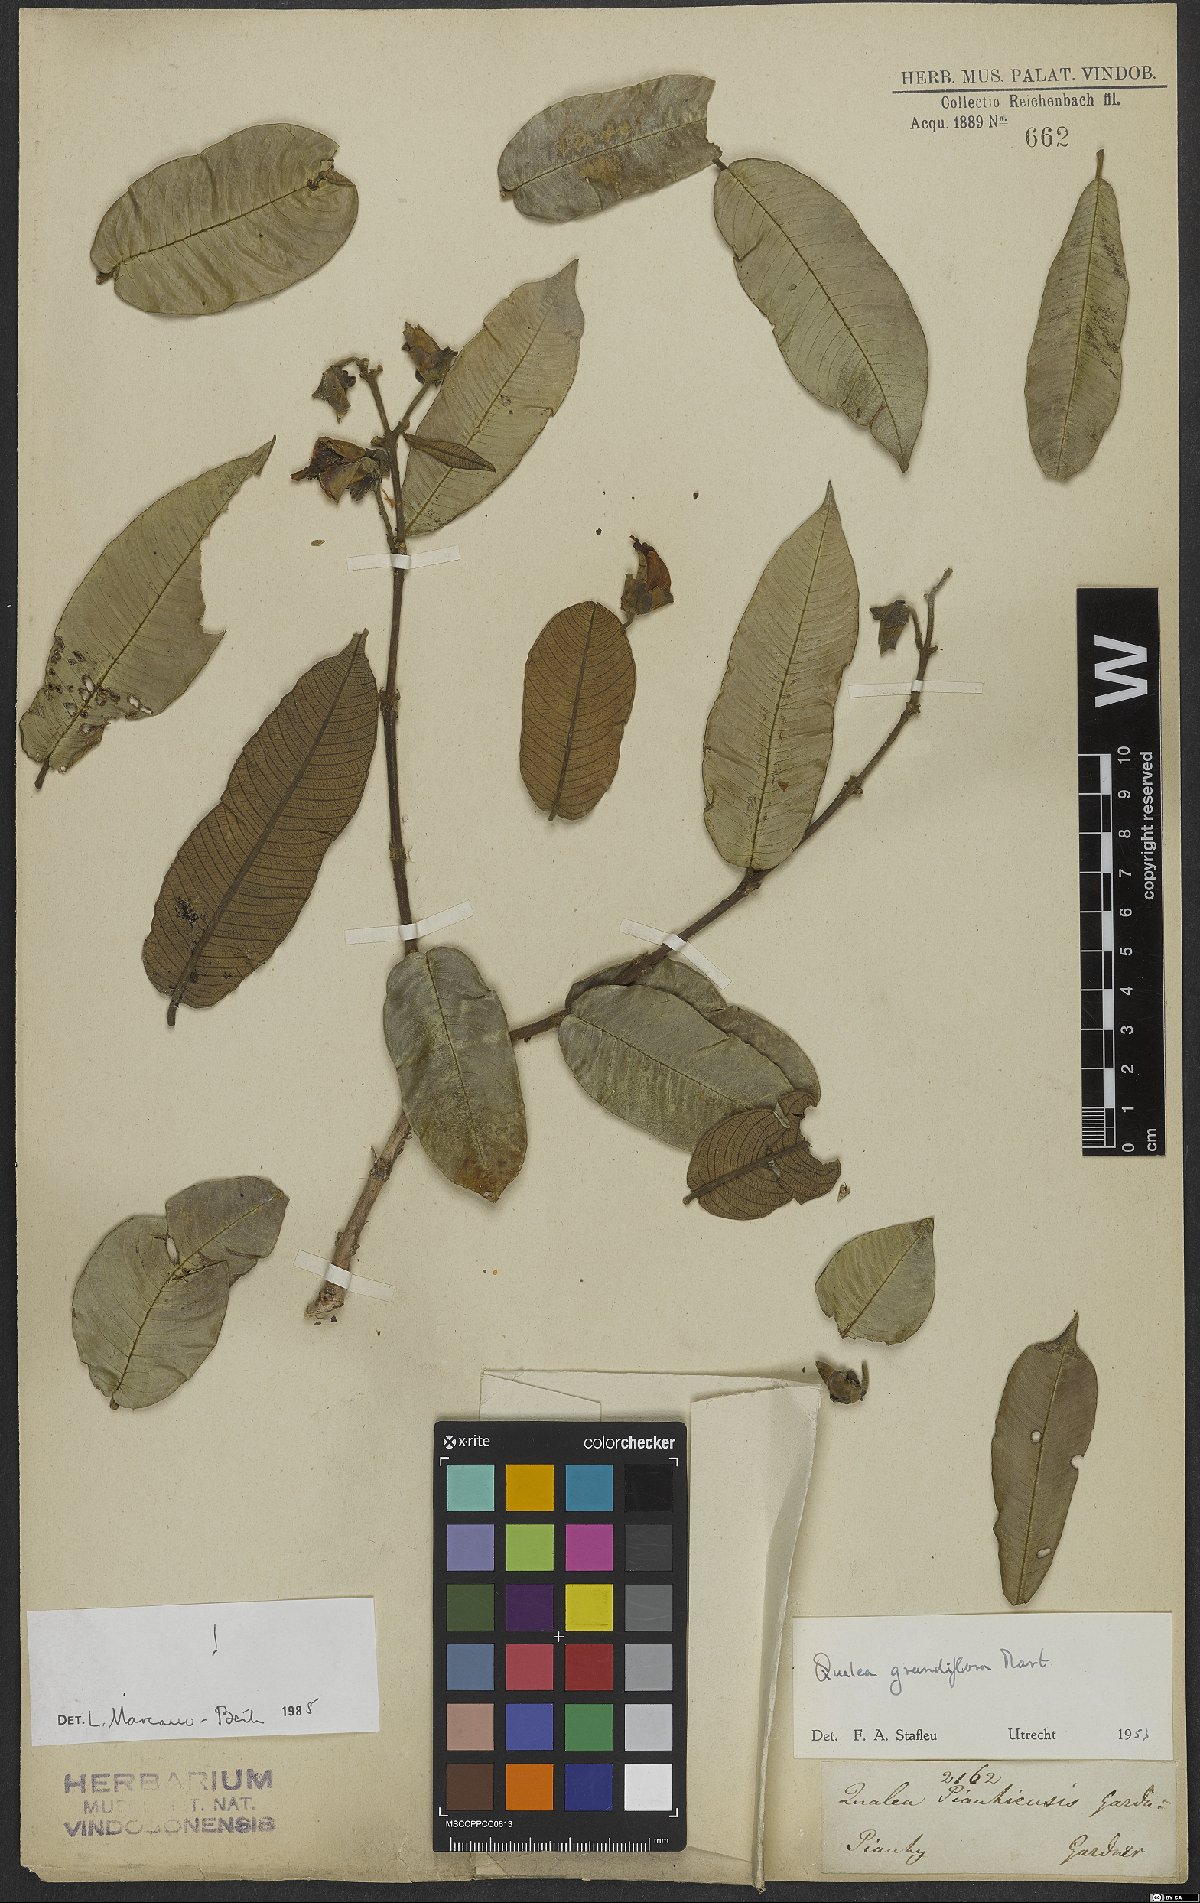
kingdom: Plantae
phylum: Tracheophyta
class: Magnoliopsida
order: Myrtales
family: Vochysiaceae
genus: Qualea
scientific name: Qualea grandiflora
